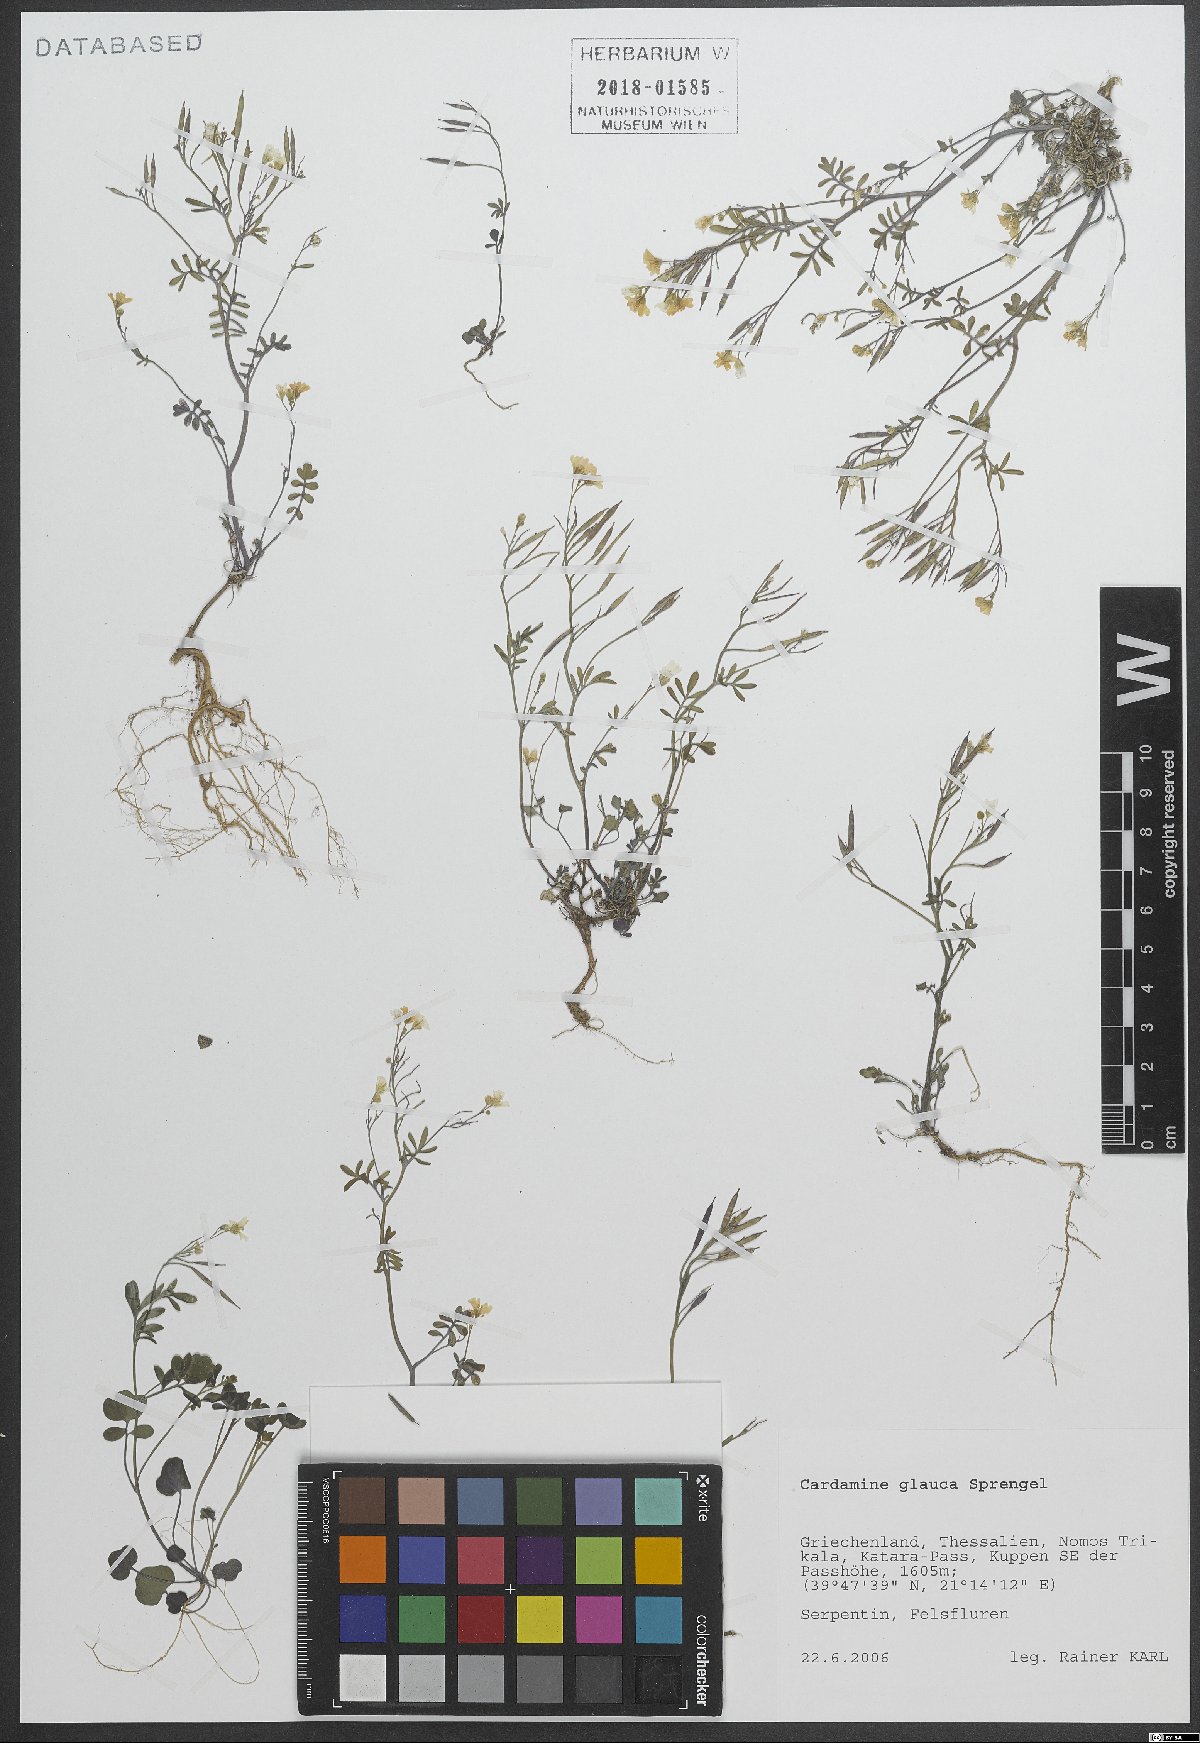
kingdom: Plantae
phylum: Tracheophyta
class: Magnoliopsida
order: Brassicales
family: Brassicaceae
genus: Cardamine
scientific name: Cardamine glauca
